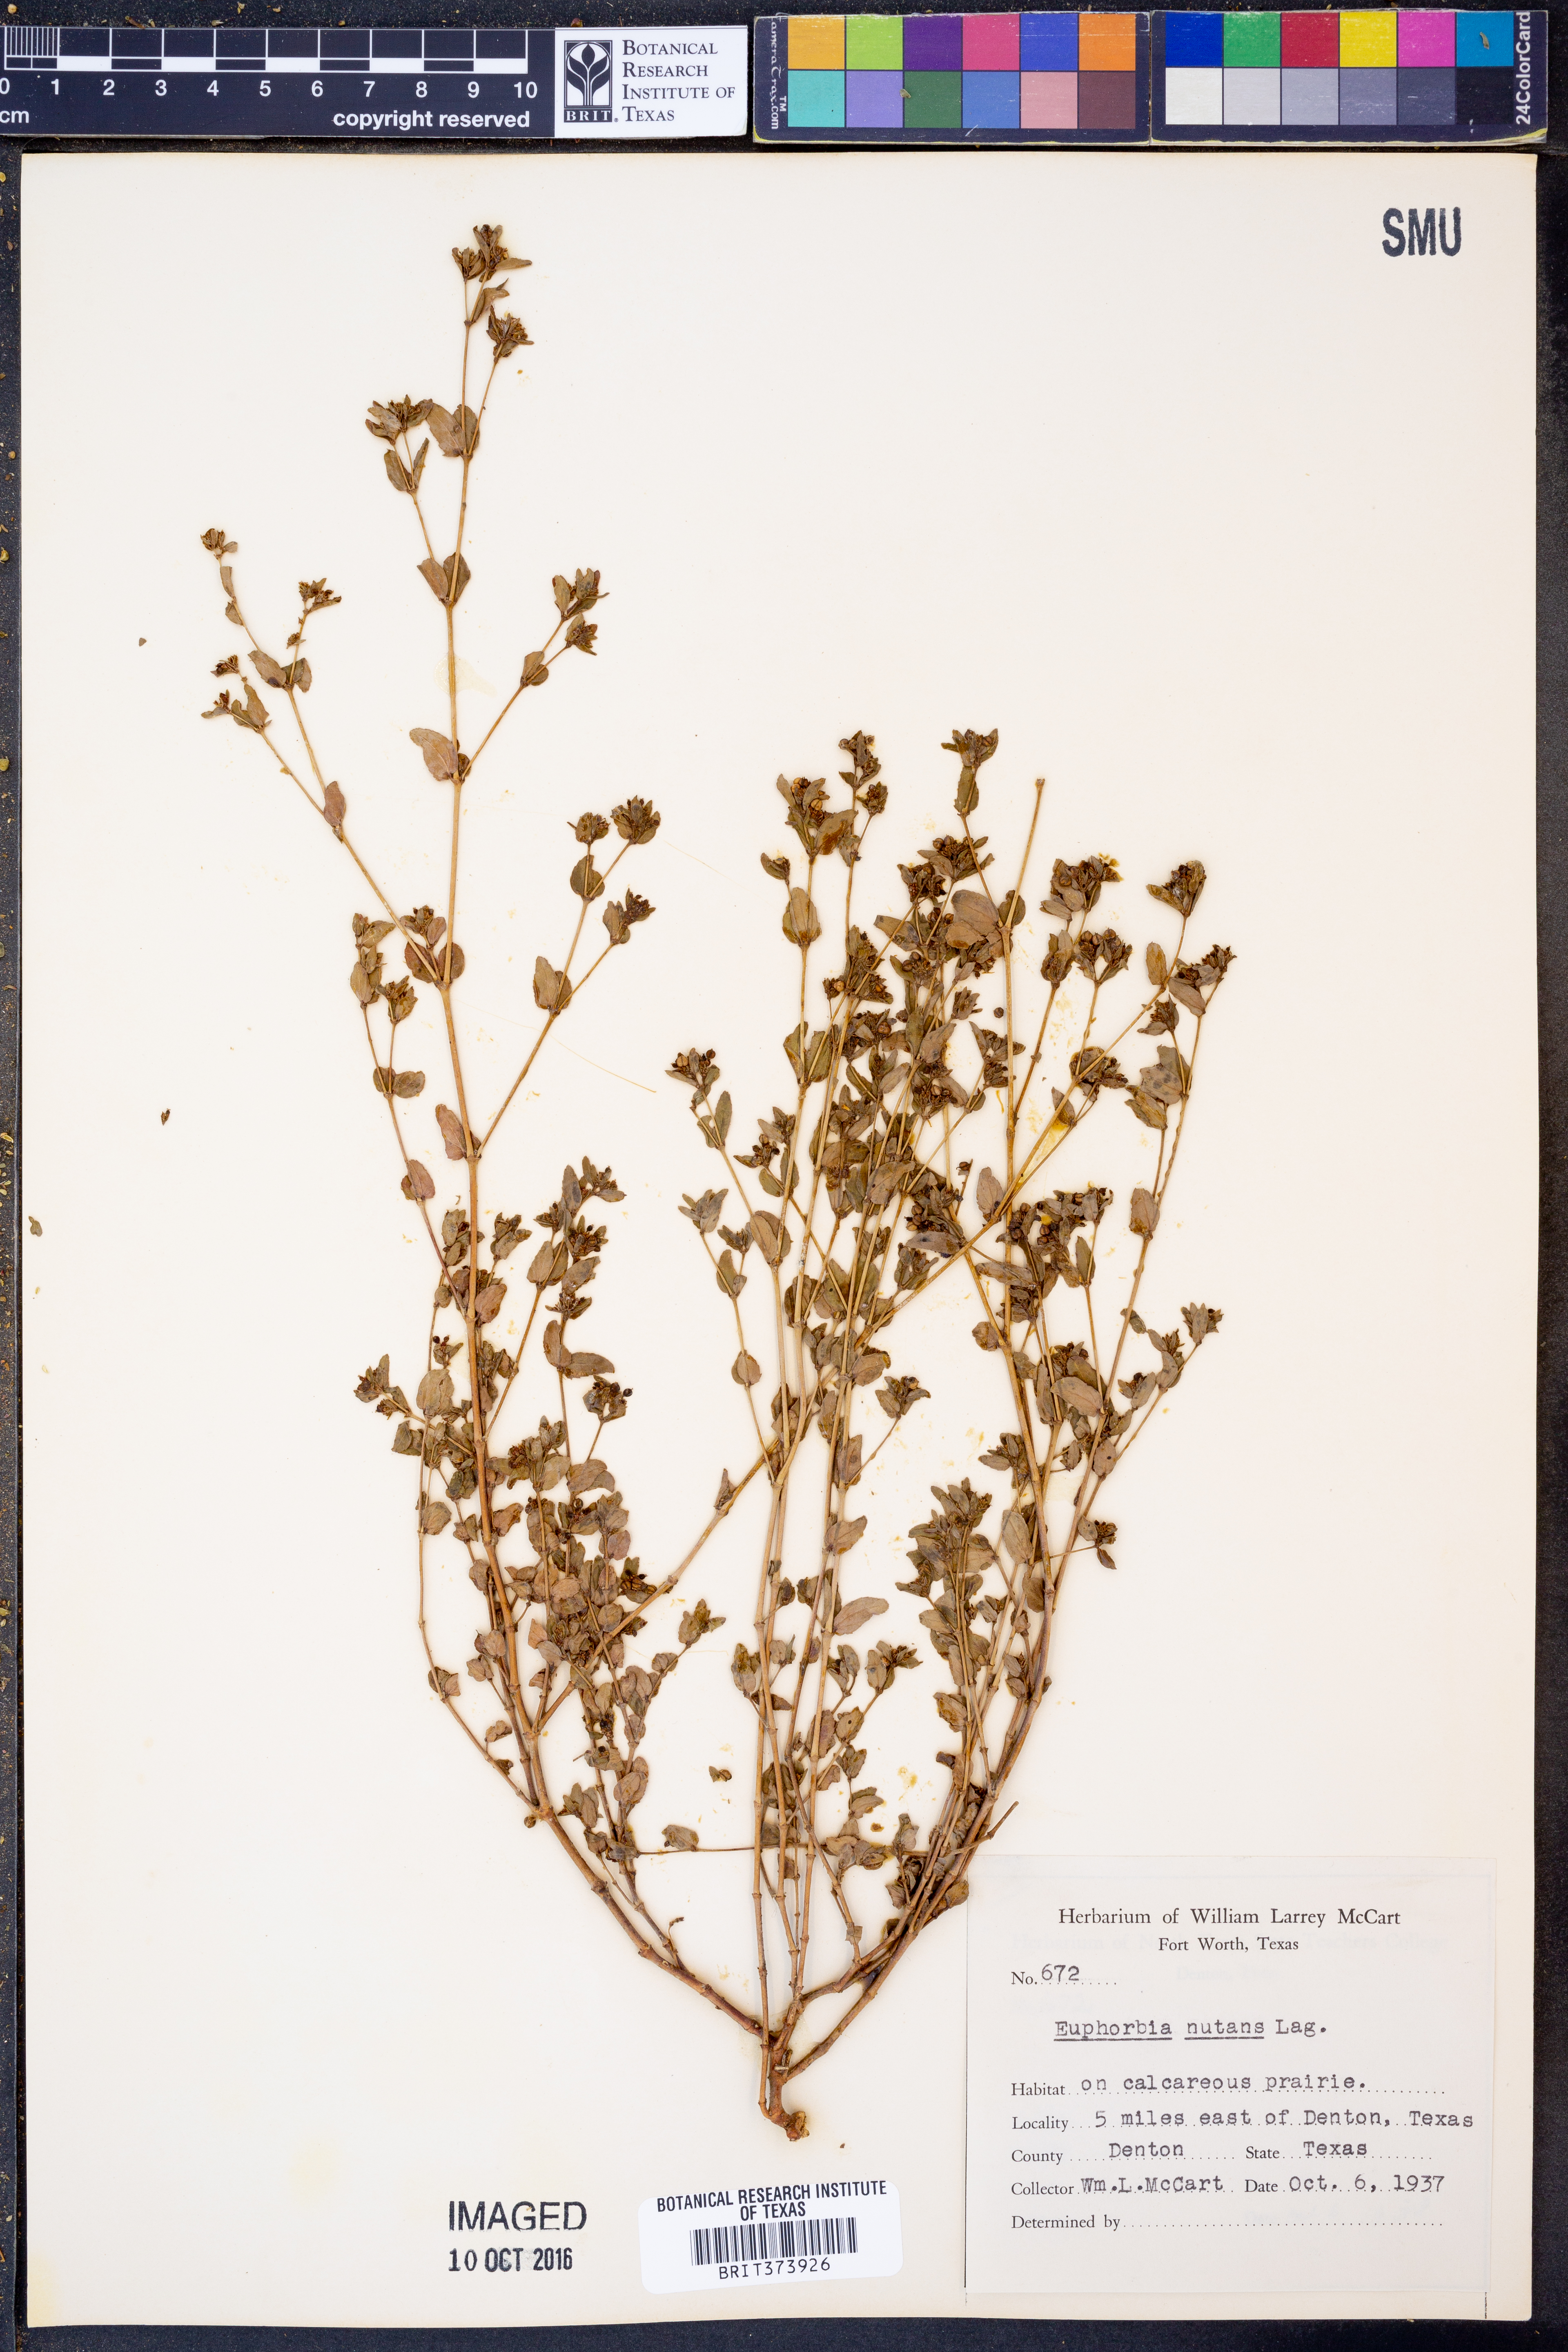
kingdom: Plantae
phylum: Tracheophyta
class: Magnoliopsida
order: Malpighiales
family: Euphorbiaceae
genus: Euphorbia
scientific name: Euphorbia nutans
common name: Eyebane
